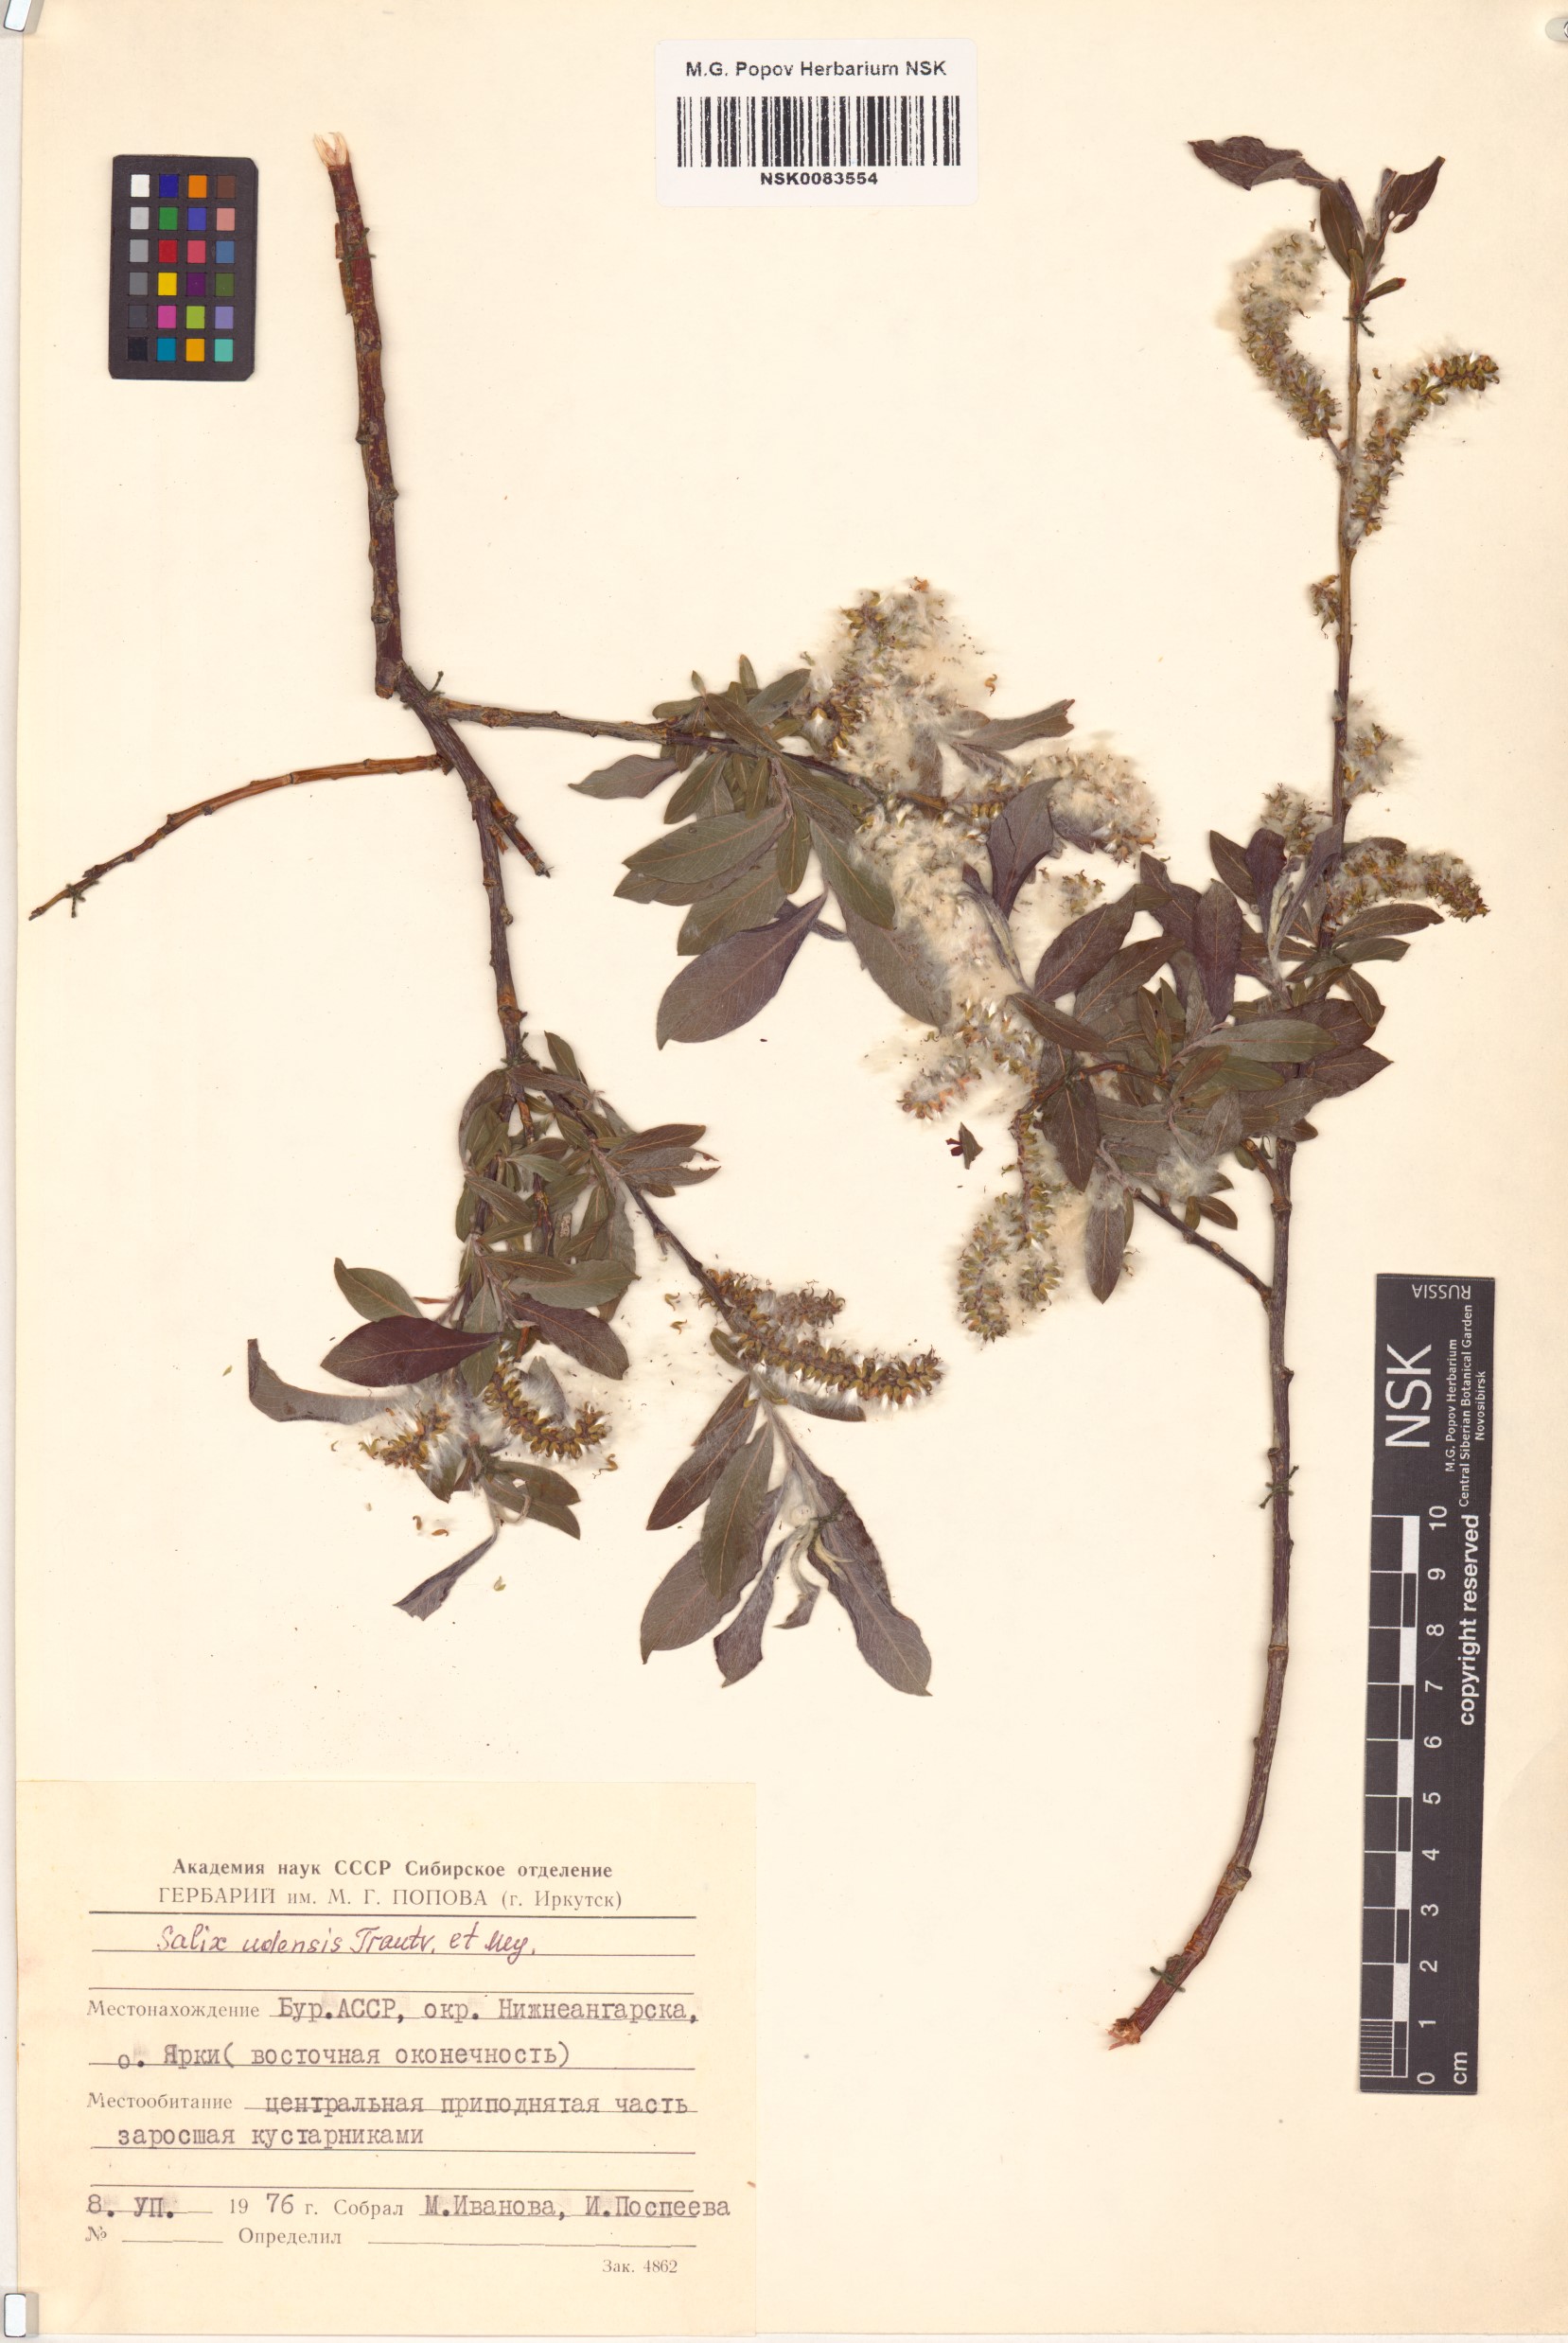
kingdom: Plantae
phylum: Tracheophyta
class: Magnoliopsida
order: Malpighiales
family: Salicaceae
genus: Salix
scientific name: Salix udensis
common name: Sachalin willow
